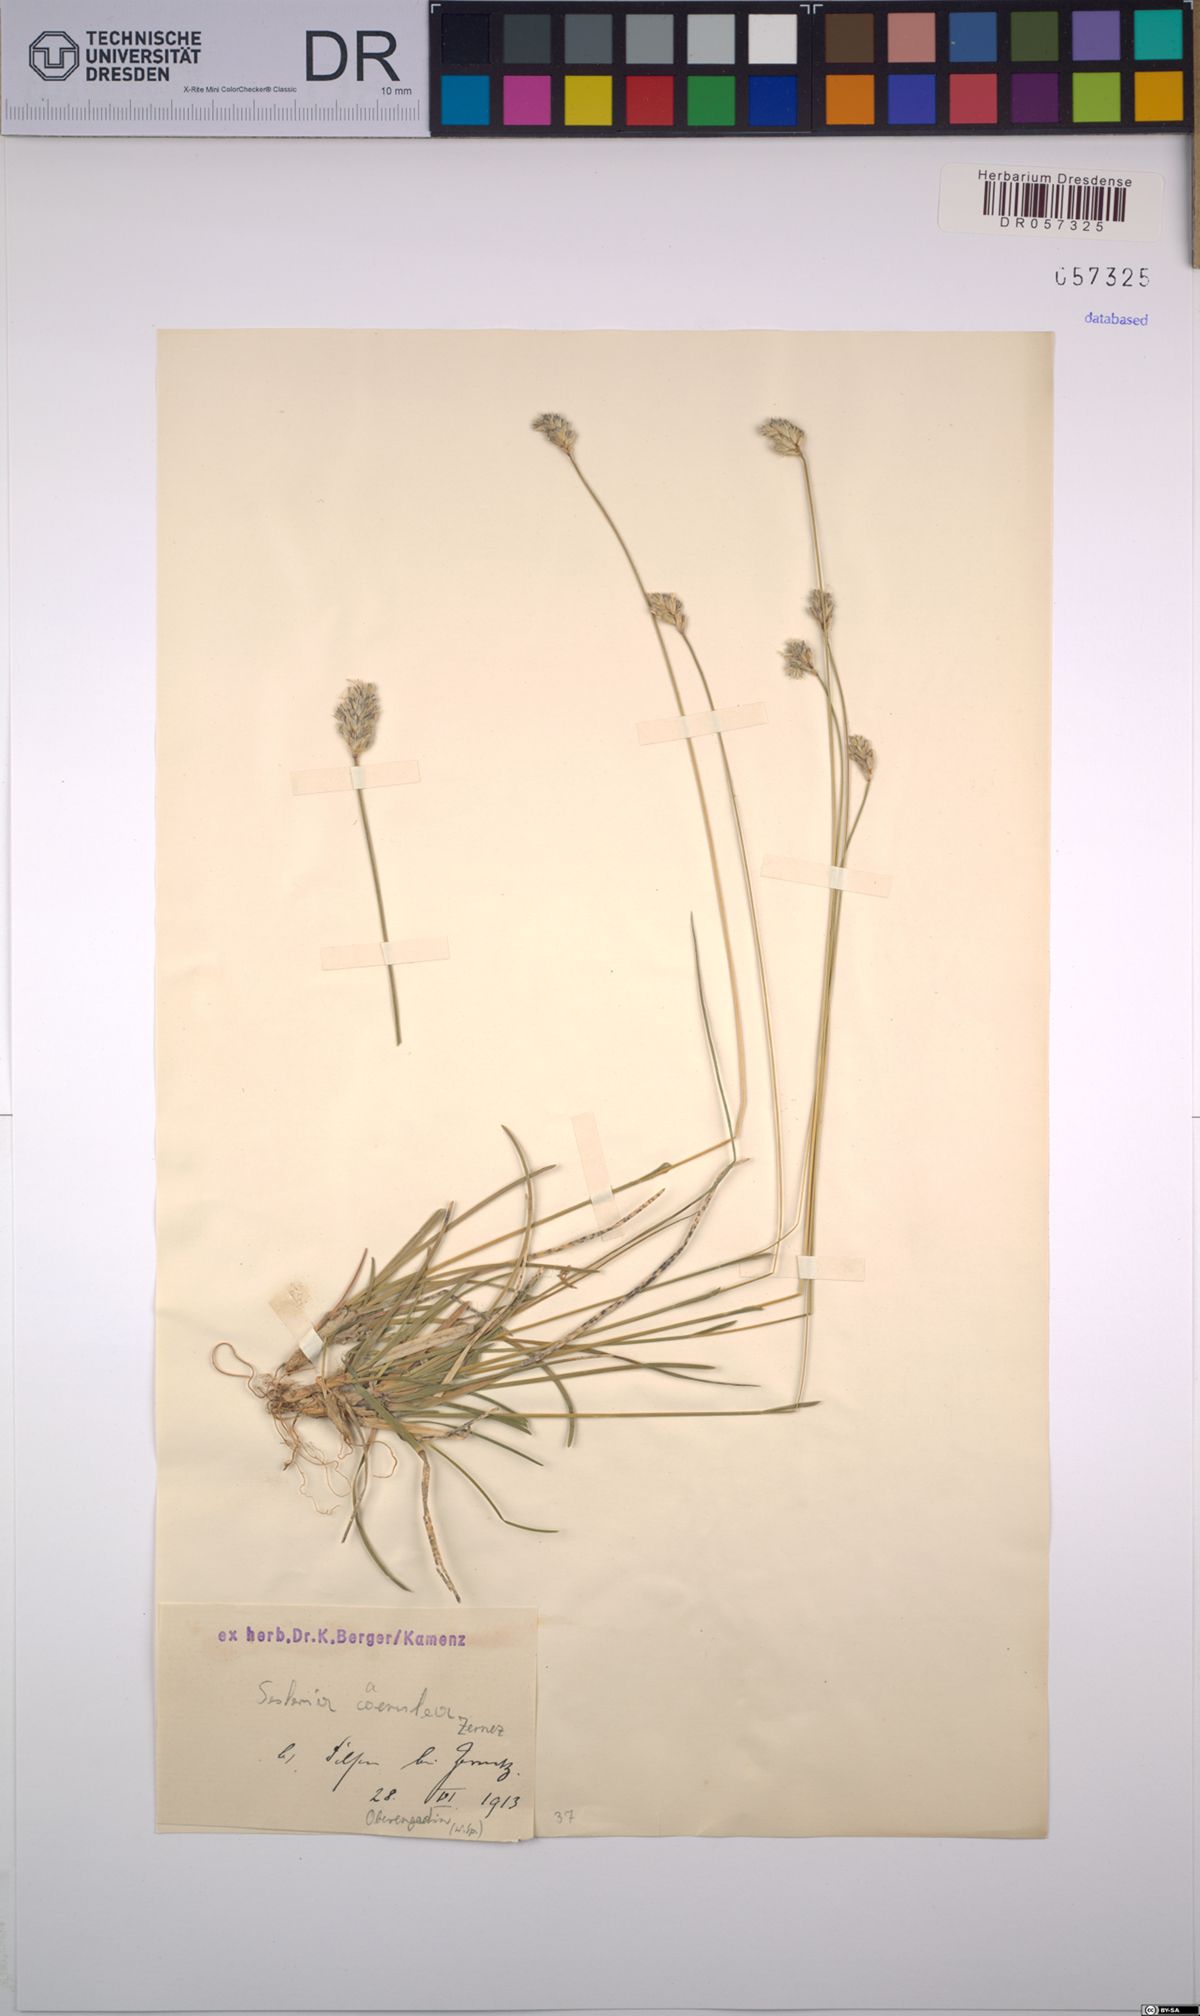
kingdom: Plantae
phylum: Tracheophyta
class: Liliopsida
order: Poales
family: Poaceae
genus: Sesleria
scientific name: Sesleria caerulea
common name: Blue moor-grass
